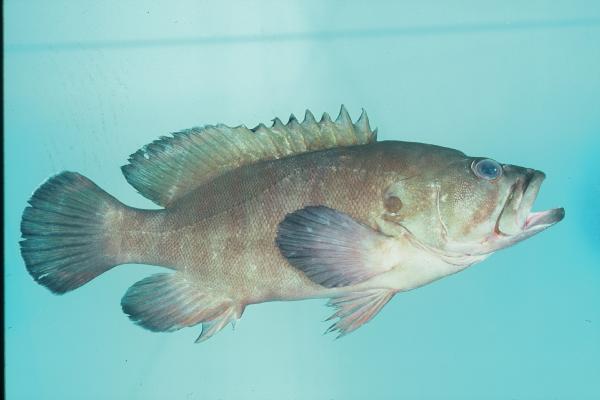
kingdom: Animalia
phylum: Chordata
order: Perciformes
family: Serranidae
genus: Cephalopholis
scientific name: Cephalopholis boenak
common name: Chocolate hind
